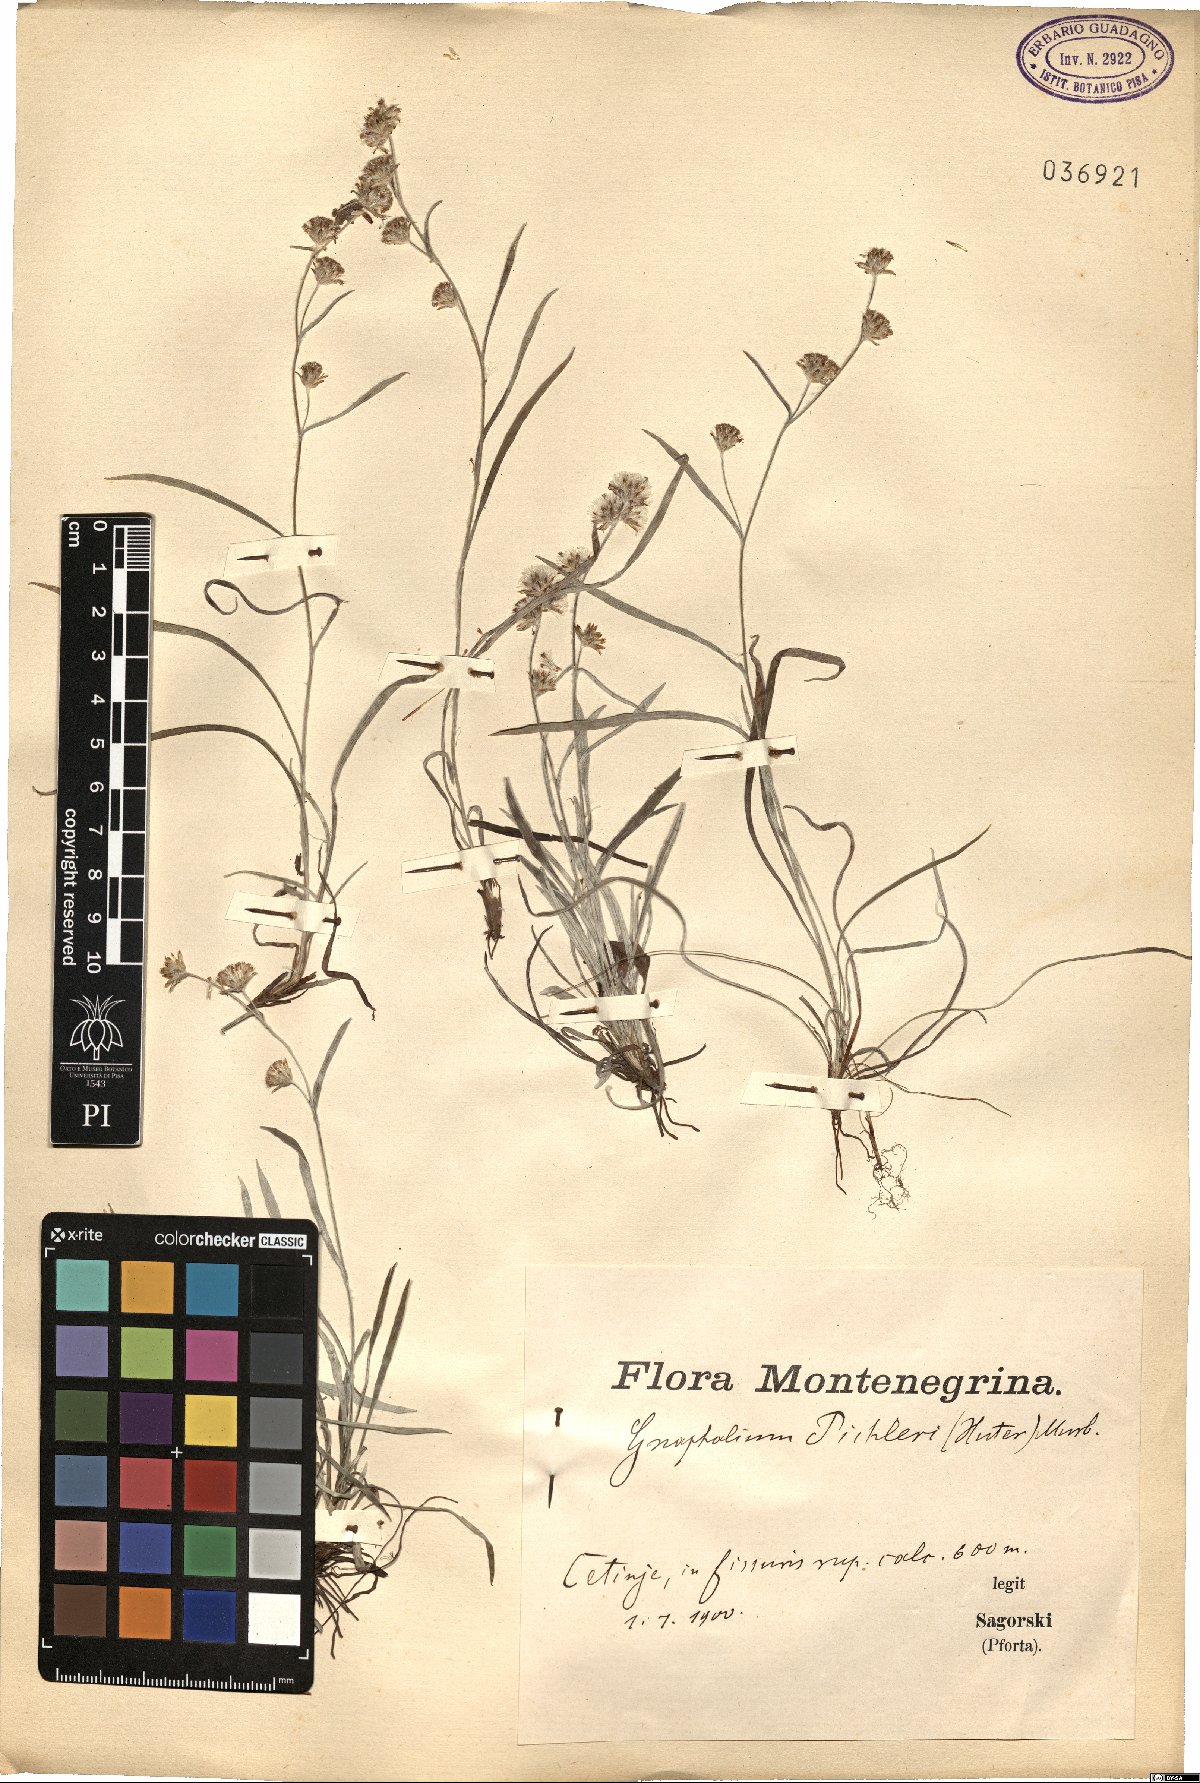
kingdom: Plantae
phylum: Tracheophyta
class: Magnoliopsida
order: Asterales
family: Asteraceae
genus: Omalotheca
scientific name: Omalotheca roeseri
